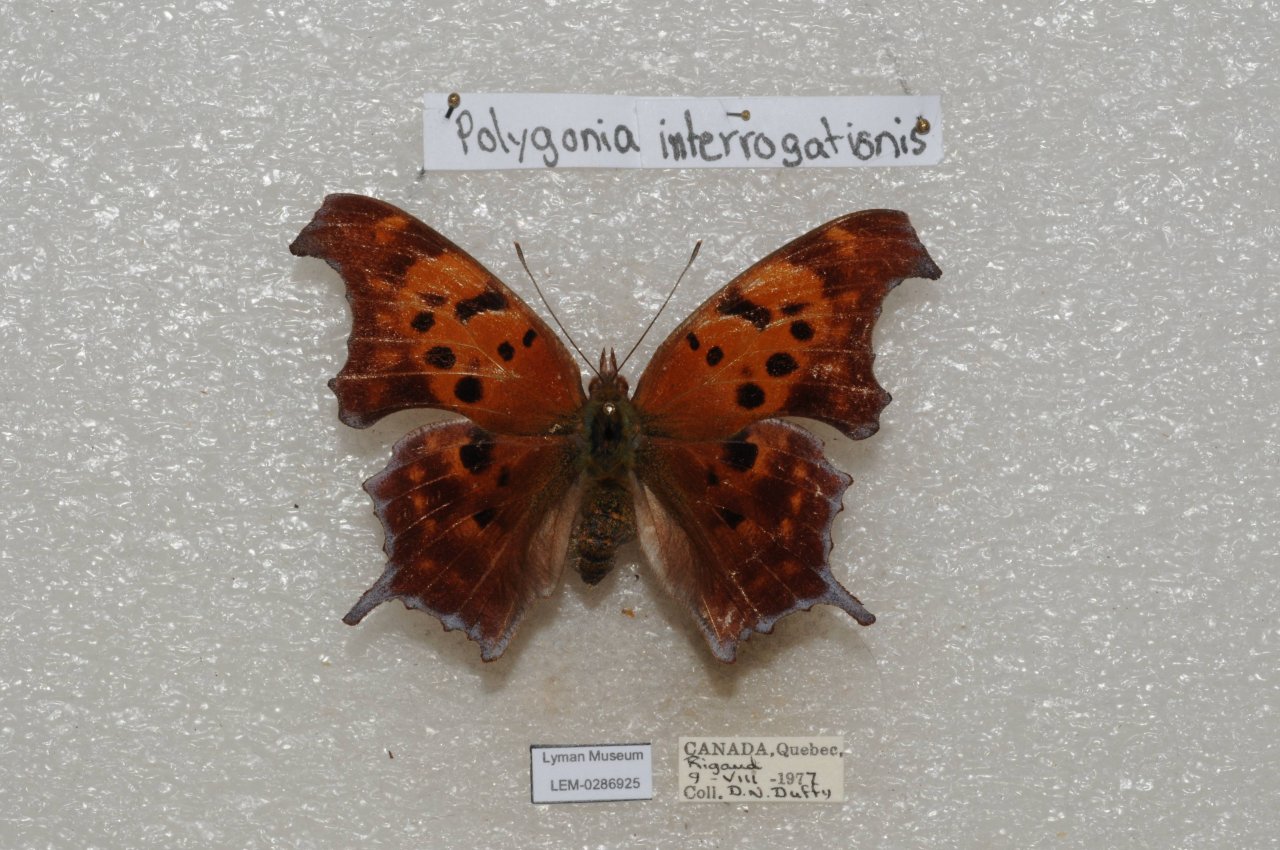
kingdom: Animalia
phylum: Arthropoda
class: Insecta
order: Lepidoptera
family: Nymphalidae
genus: Polygonia
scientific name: Polygonia interrogationis
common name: Question Mark
